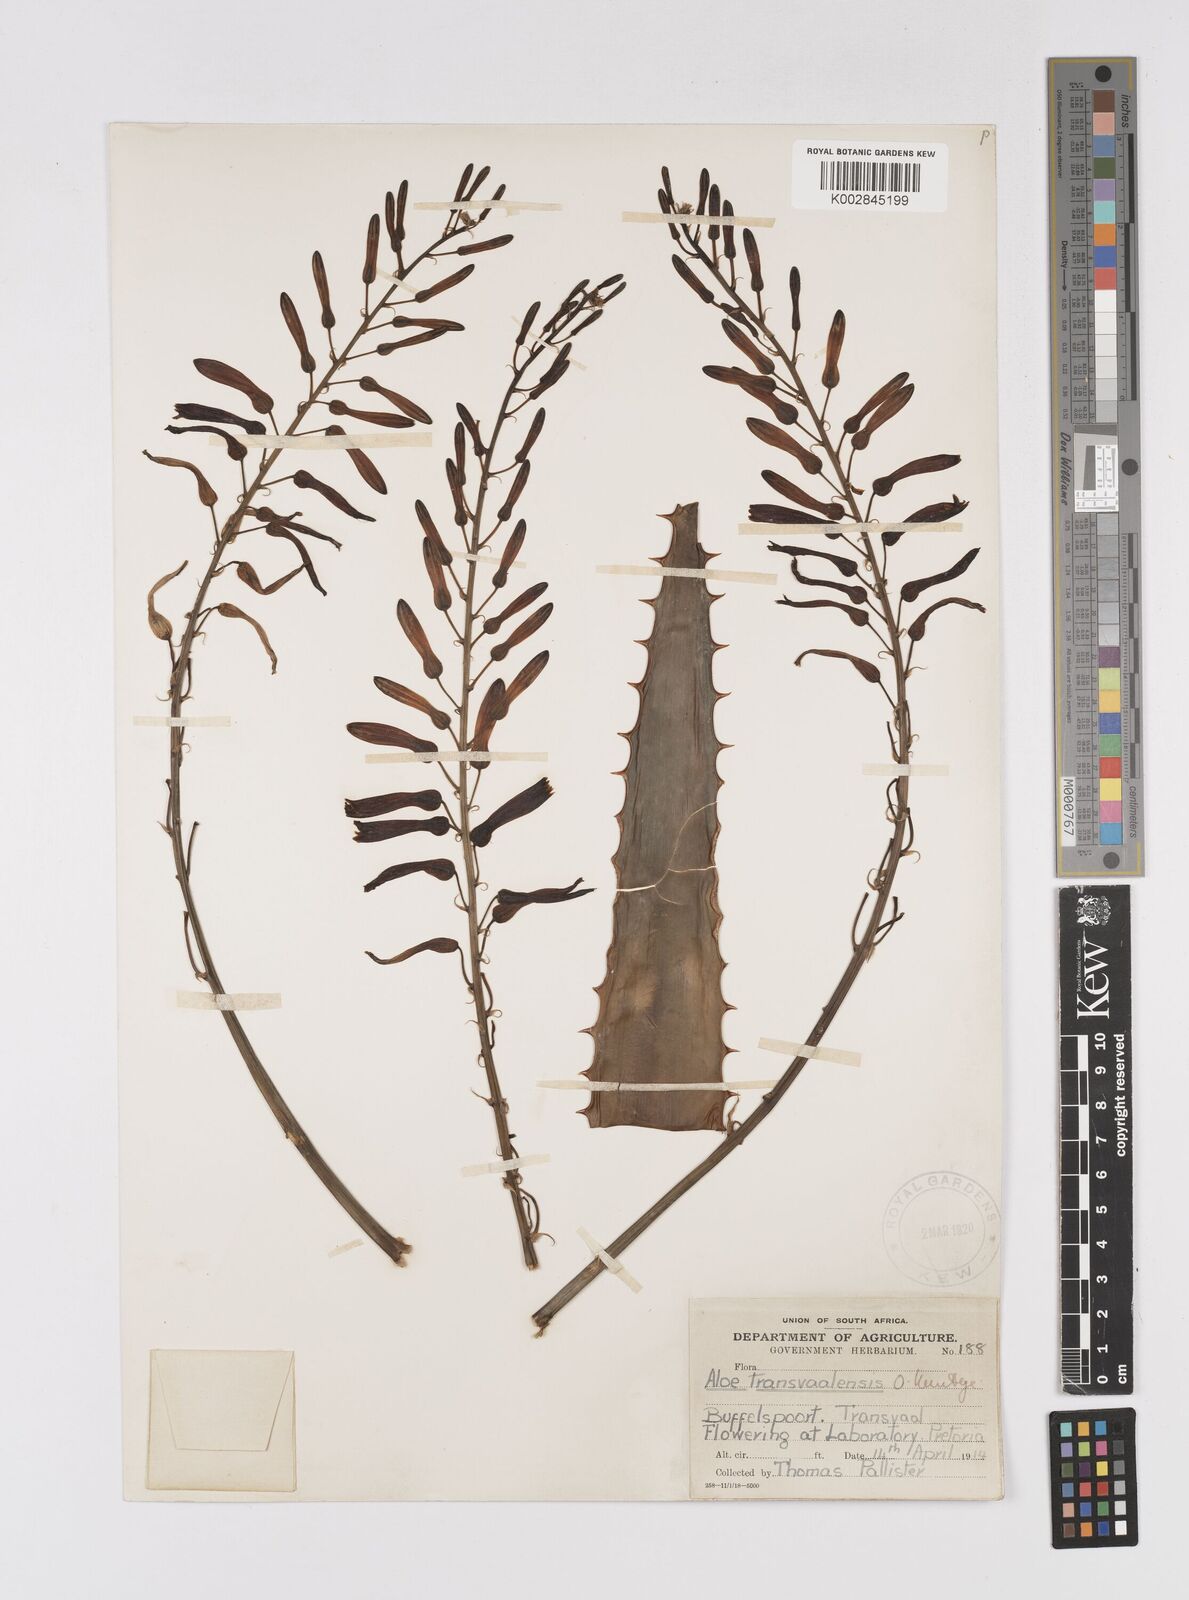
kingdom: Plantae
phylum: Tracheophyta
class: Liliopsida
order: Asparagales
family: Asphodelaceae
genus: Aloe
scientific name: Aloe transvaalensis
